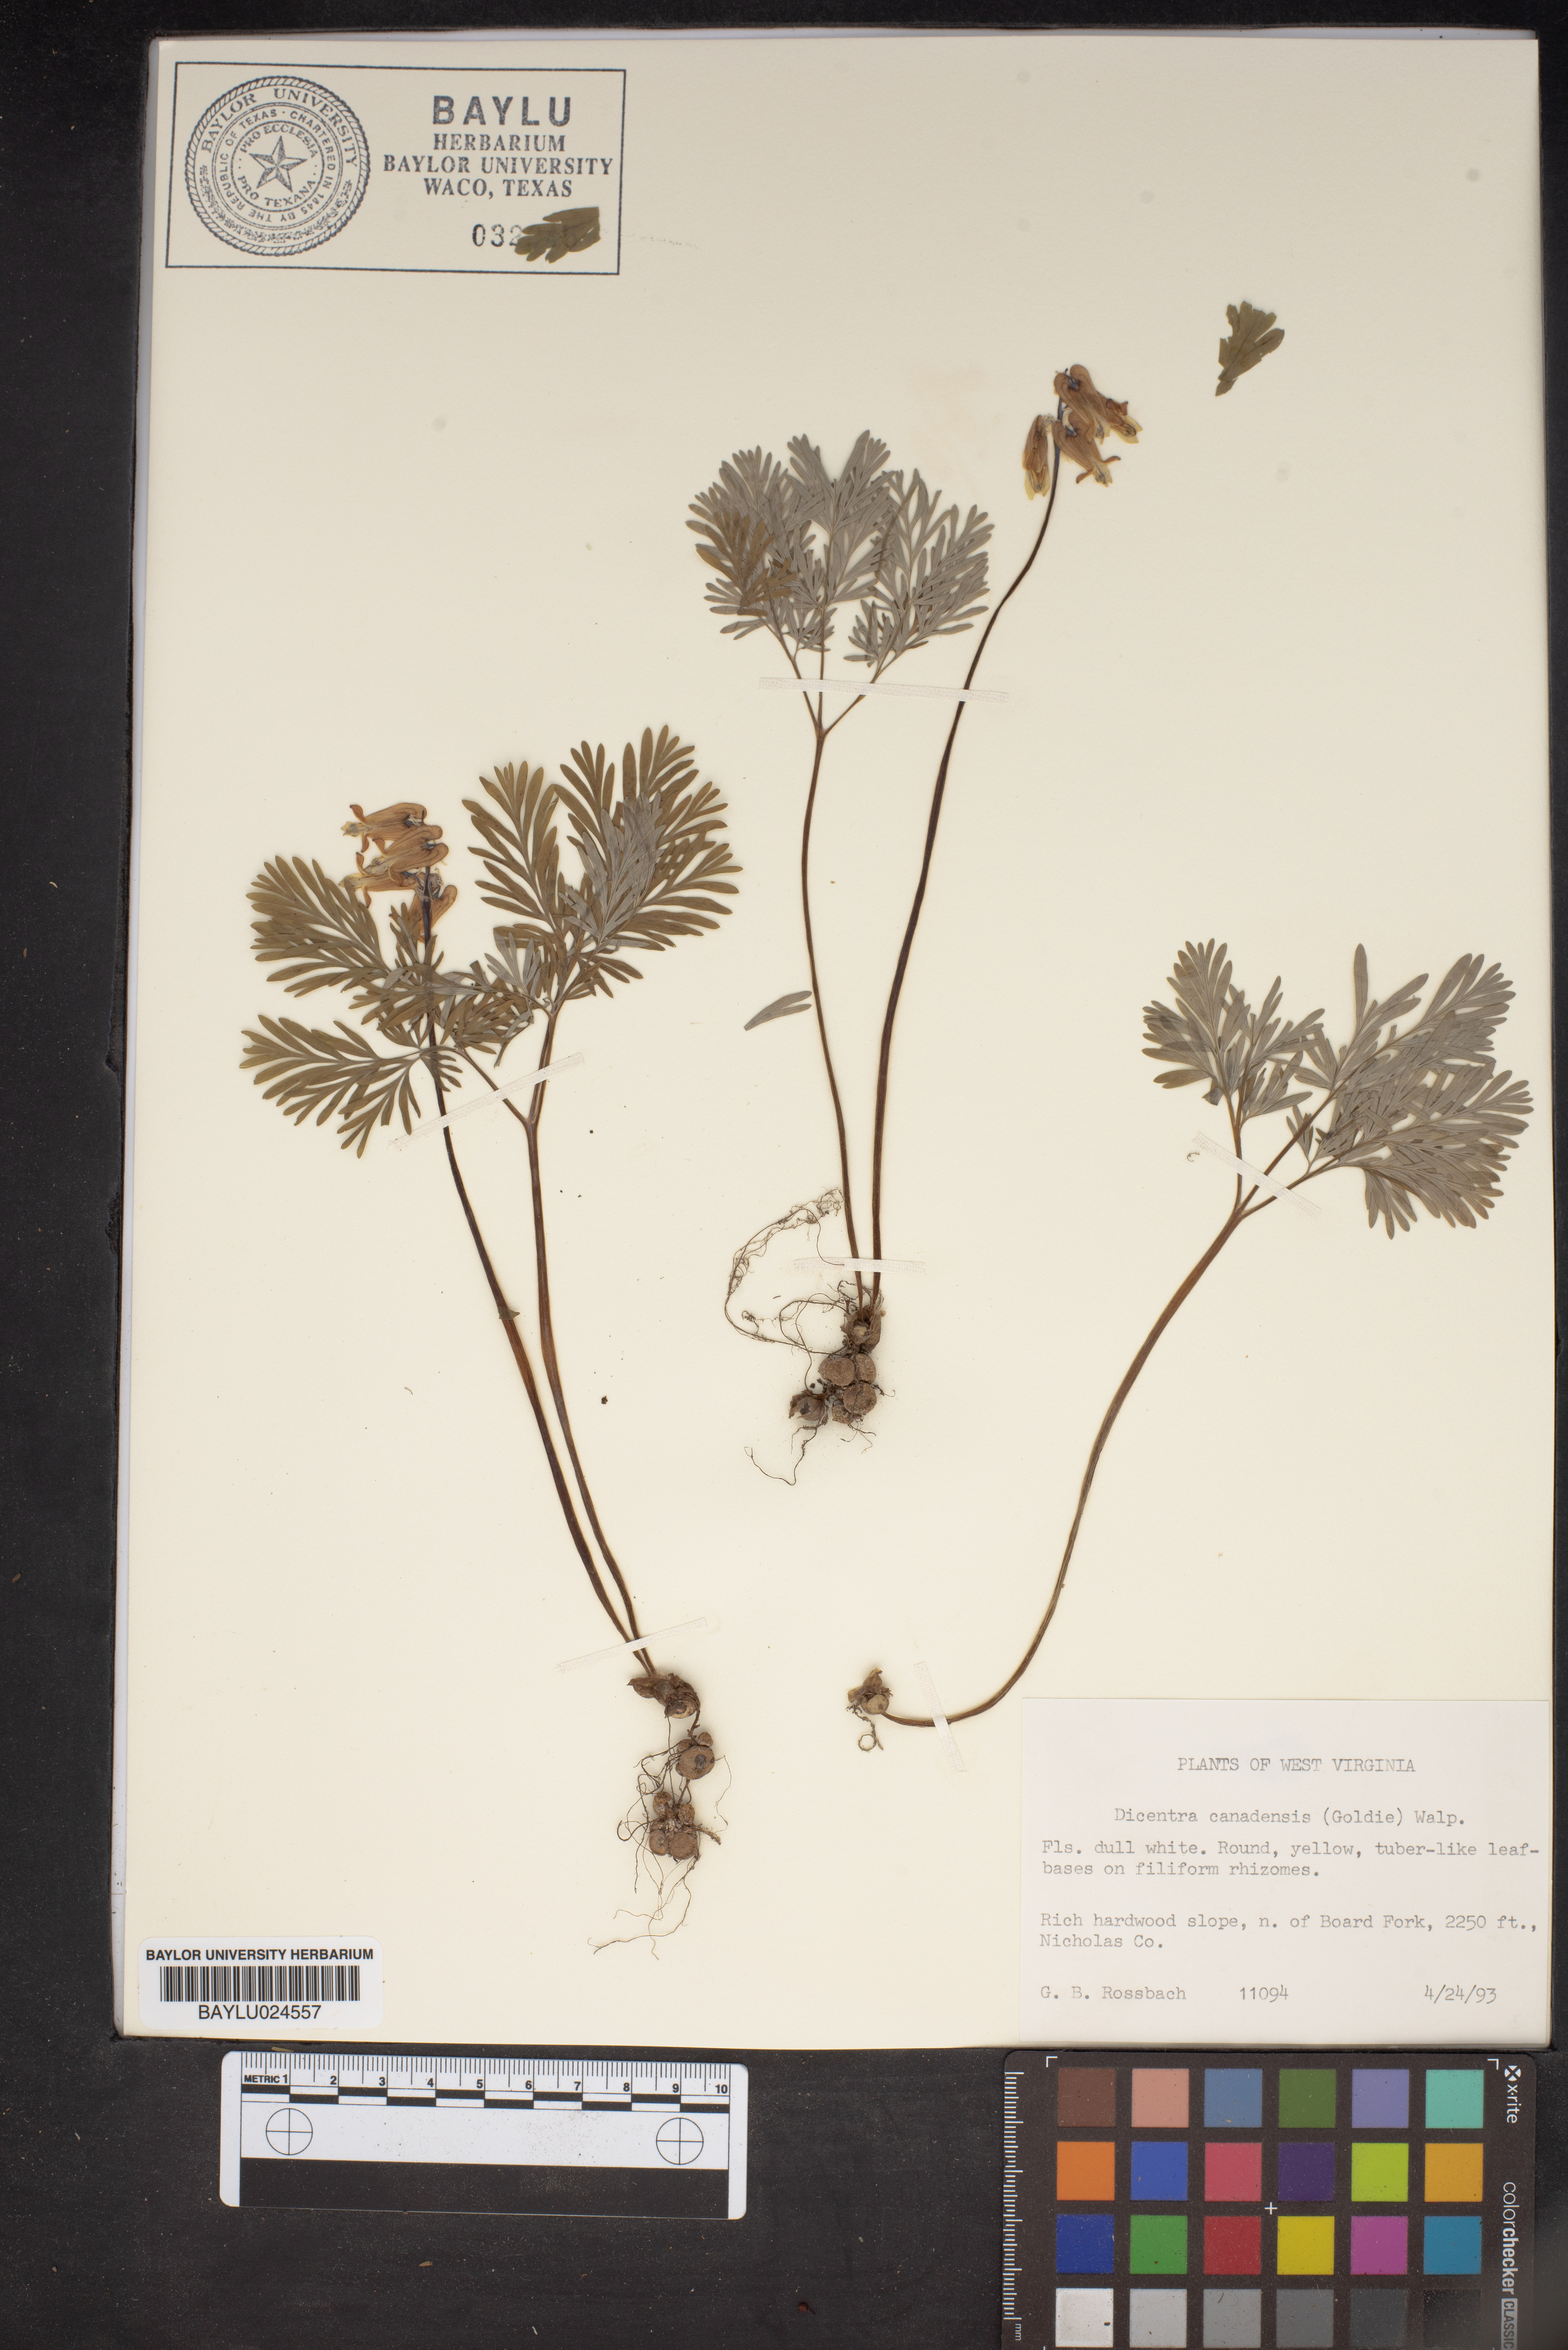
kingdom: Plantae
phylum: Tracheophyta
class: Magnoliopsida
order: Ranunculales
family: Papaveraceae
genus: Dicentra
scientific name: Dicentra canadensis
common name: Squirrel-corn
